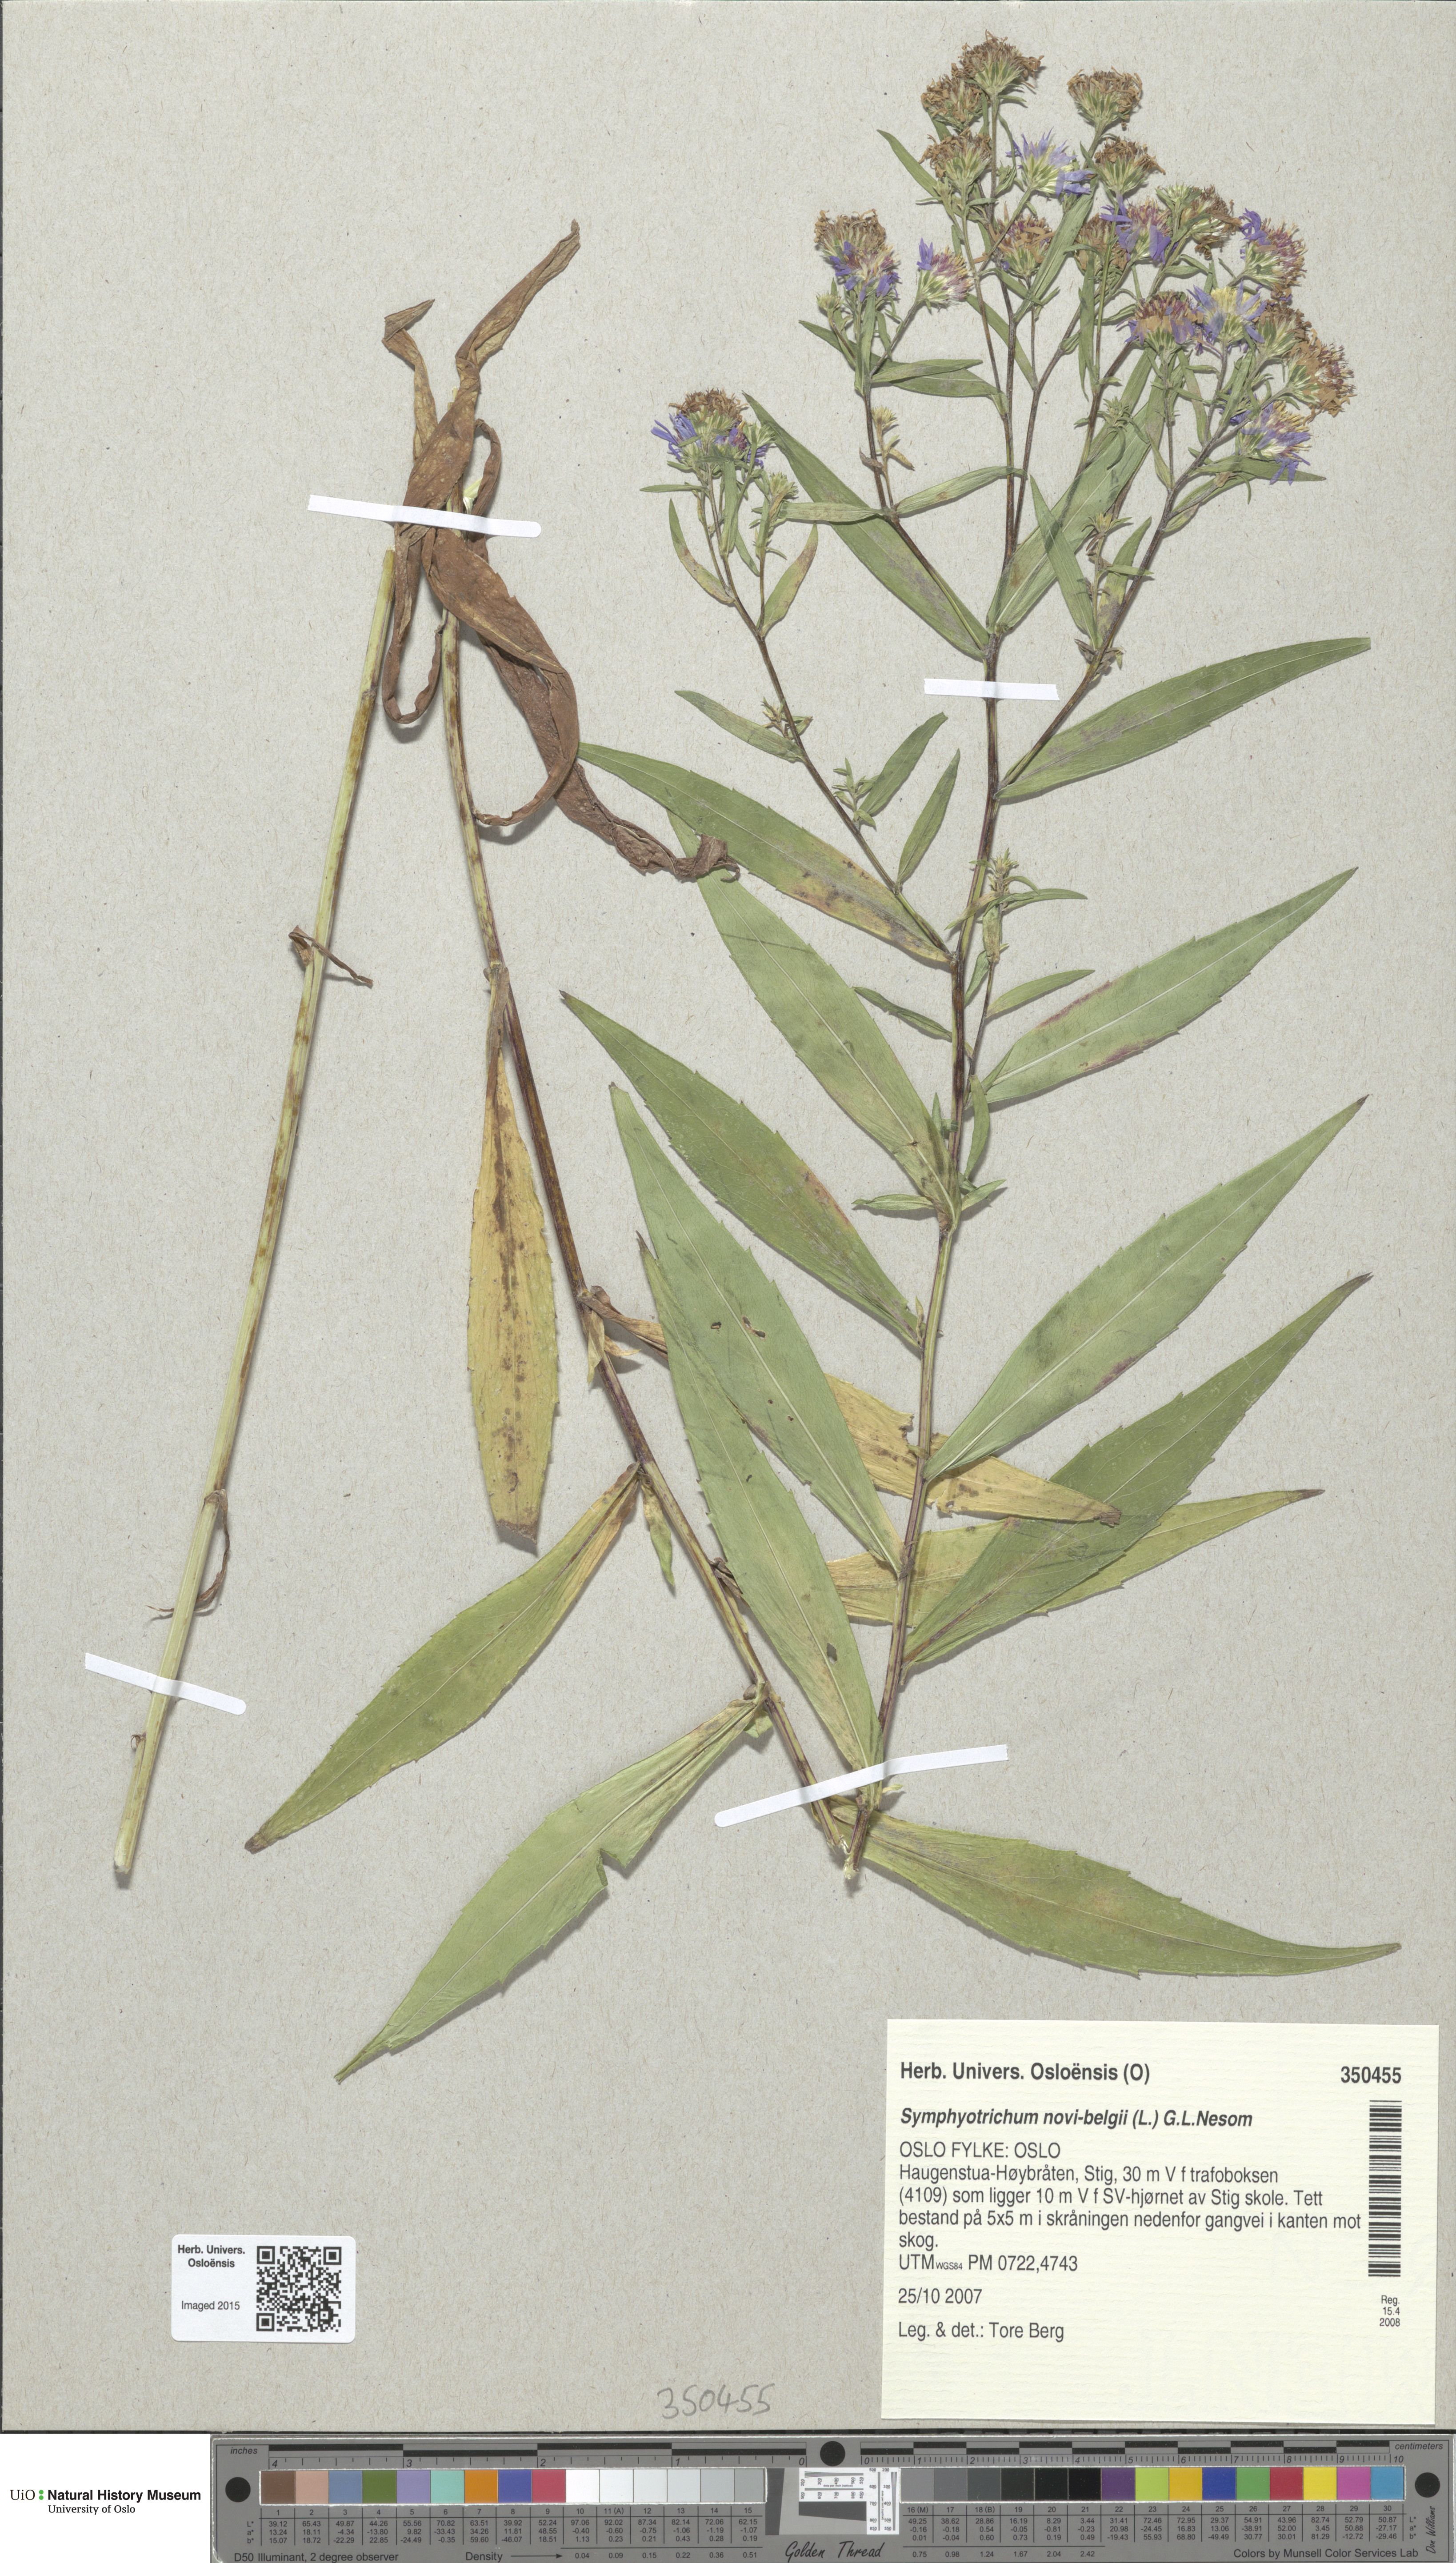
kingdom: Plantae
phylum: Tracheophyta
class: Magnoliopsida
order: Asterales
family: Asteraceae
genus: Symphyotrichum
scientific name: Symphyotrichum salignum
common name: Common michaelmas daisy
